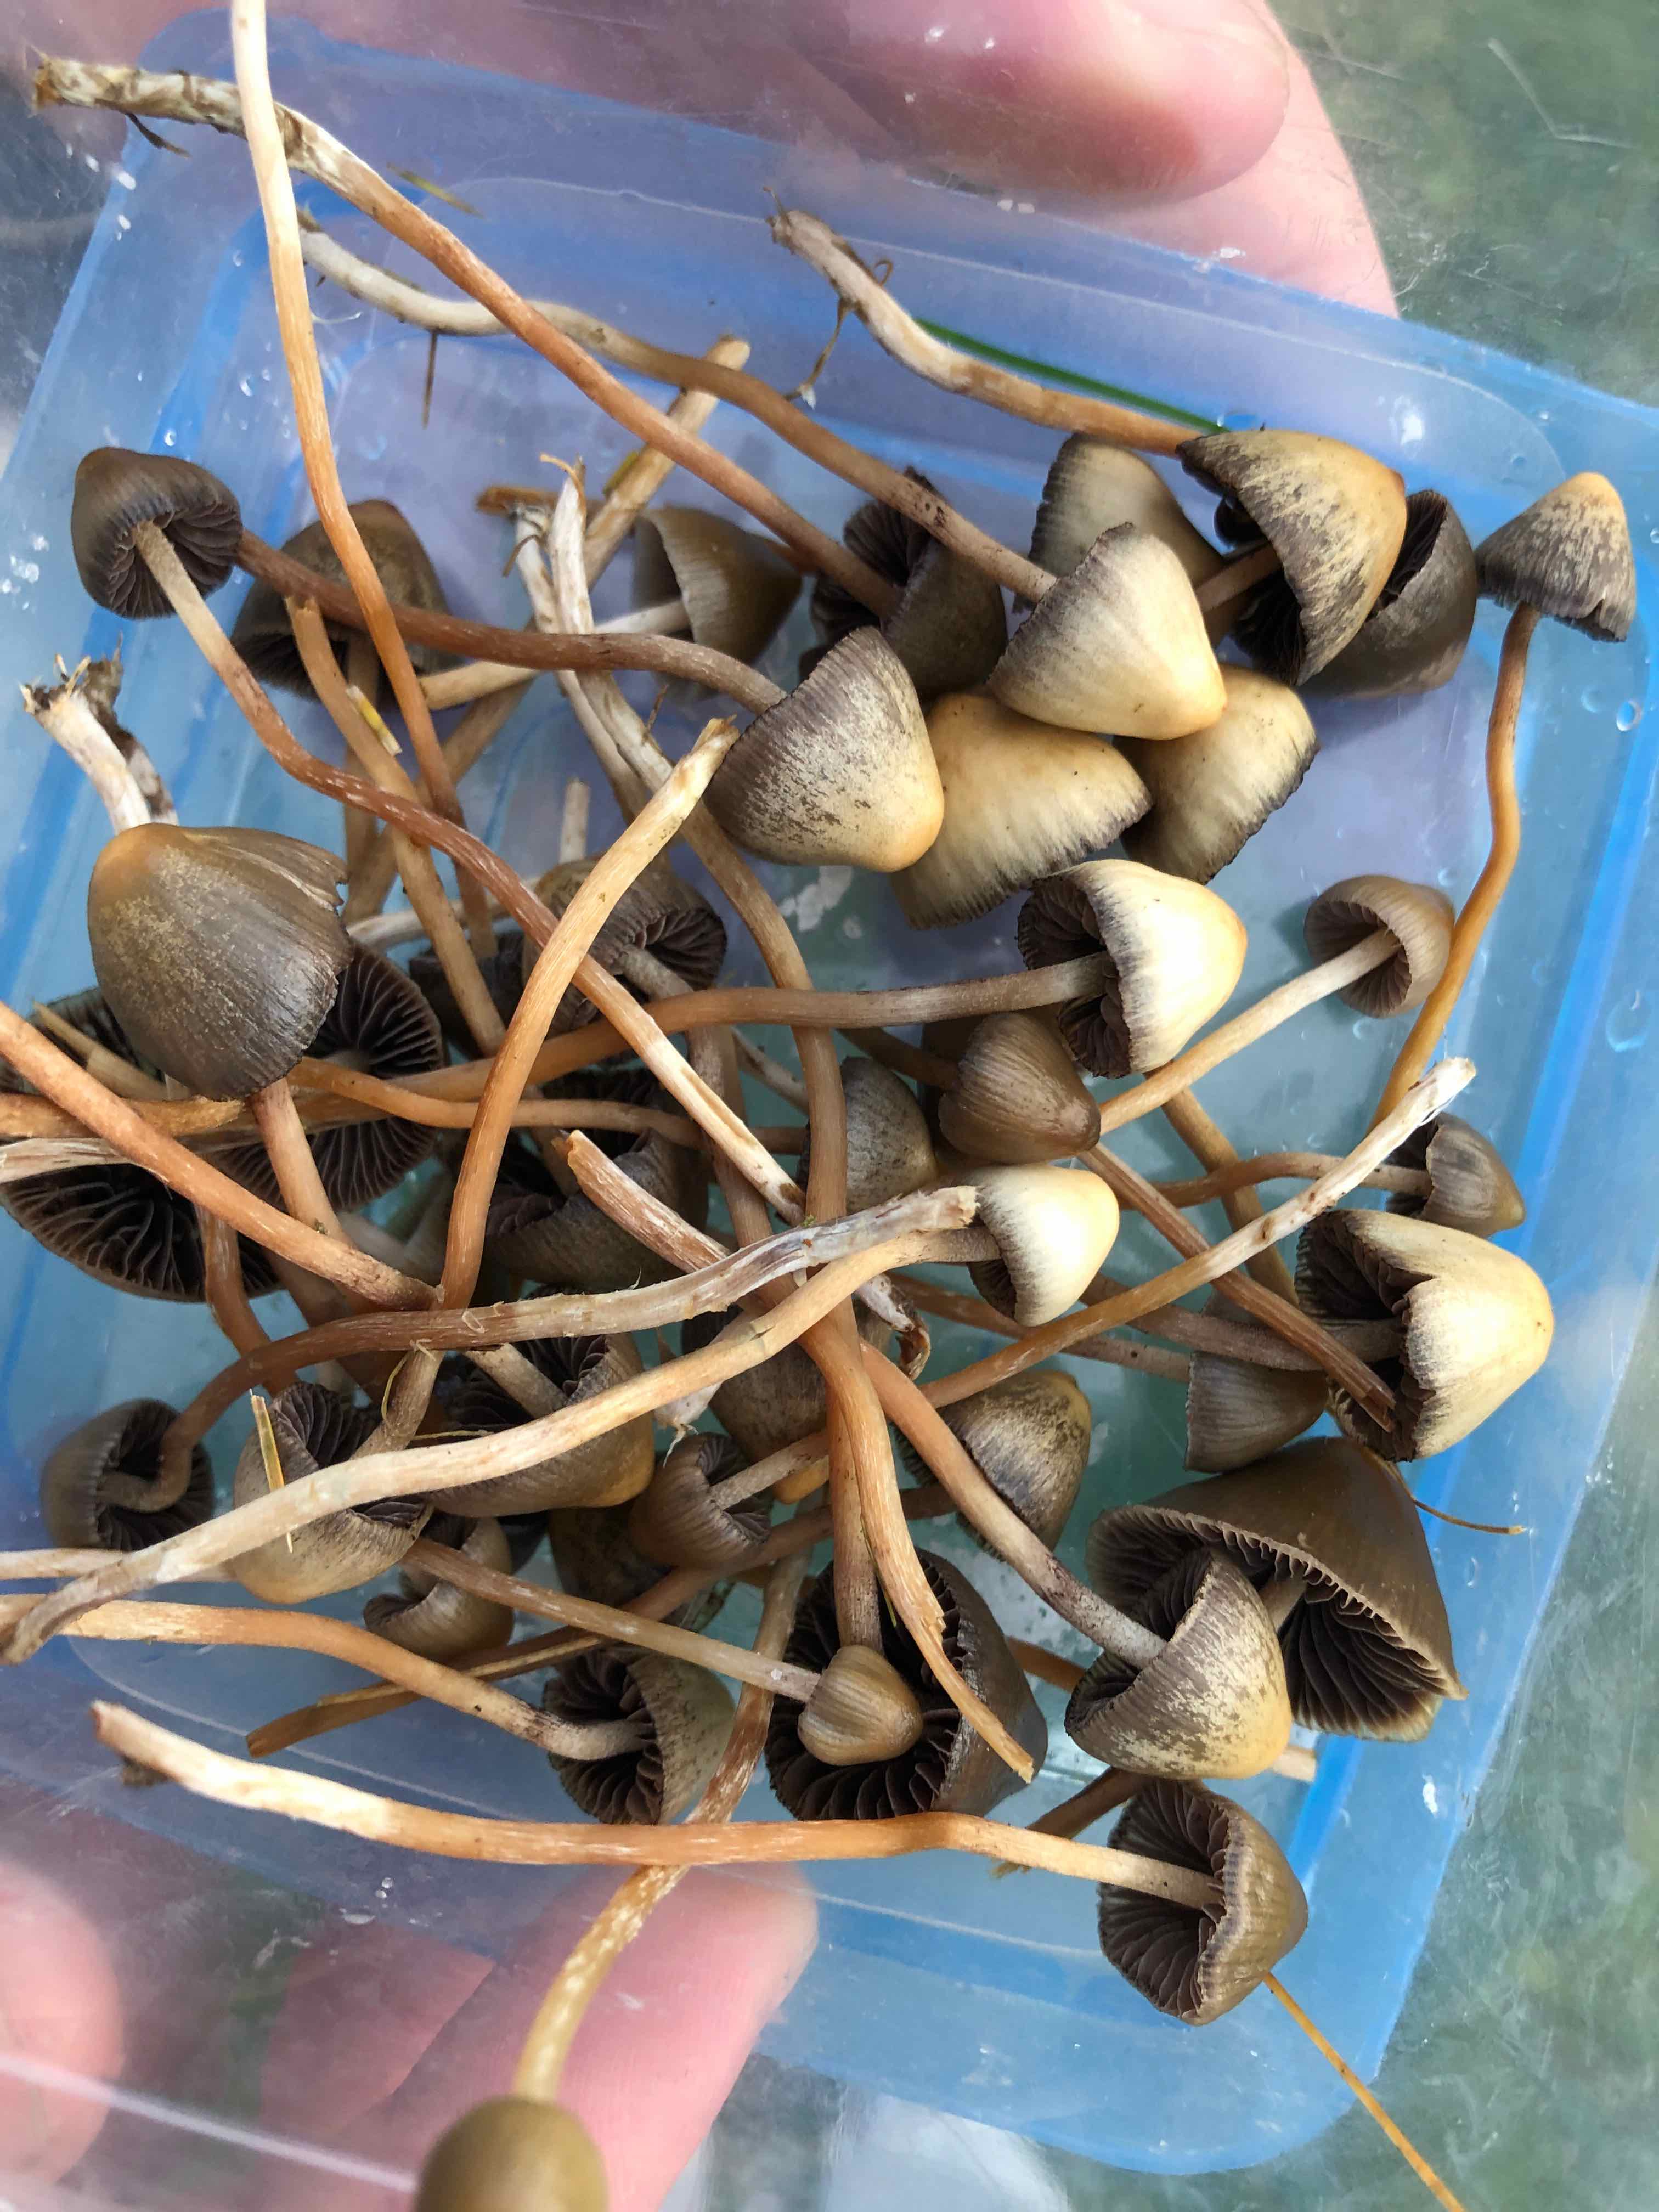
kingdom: Fungi
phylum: Basidiomycota
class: Agaricomycetes
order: Agaricales
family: Hymenogastraceae
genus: Psilocybe
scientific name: Psilocybe semilanceata
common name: spids nøgenhat
